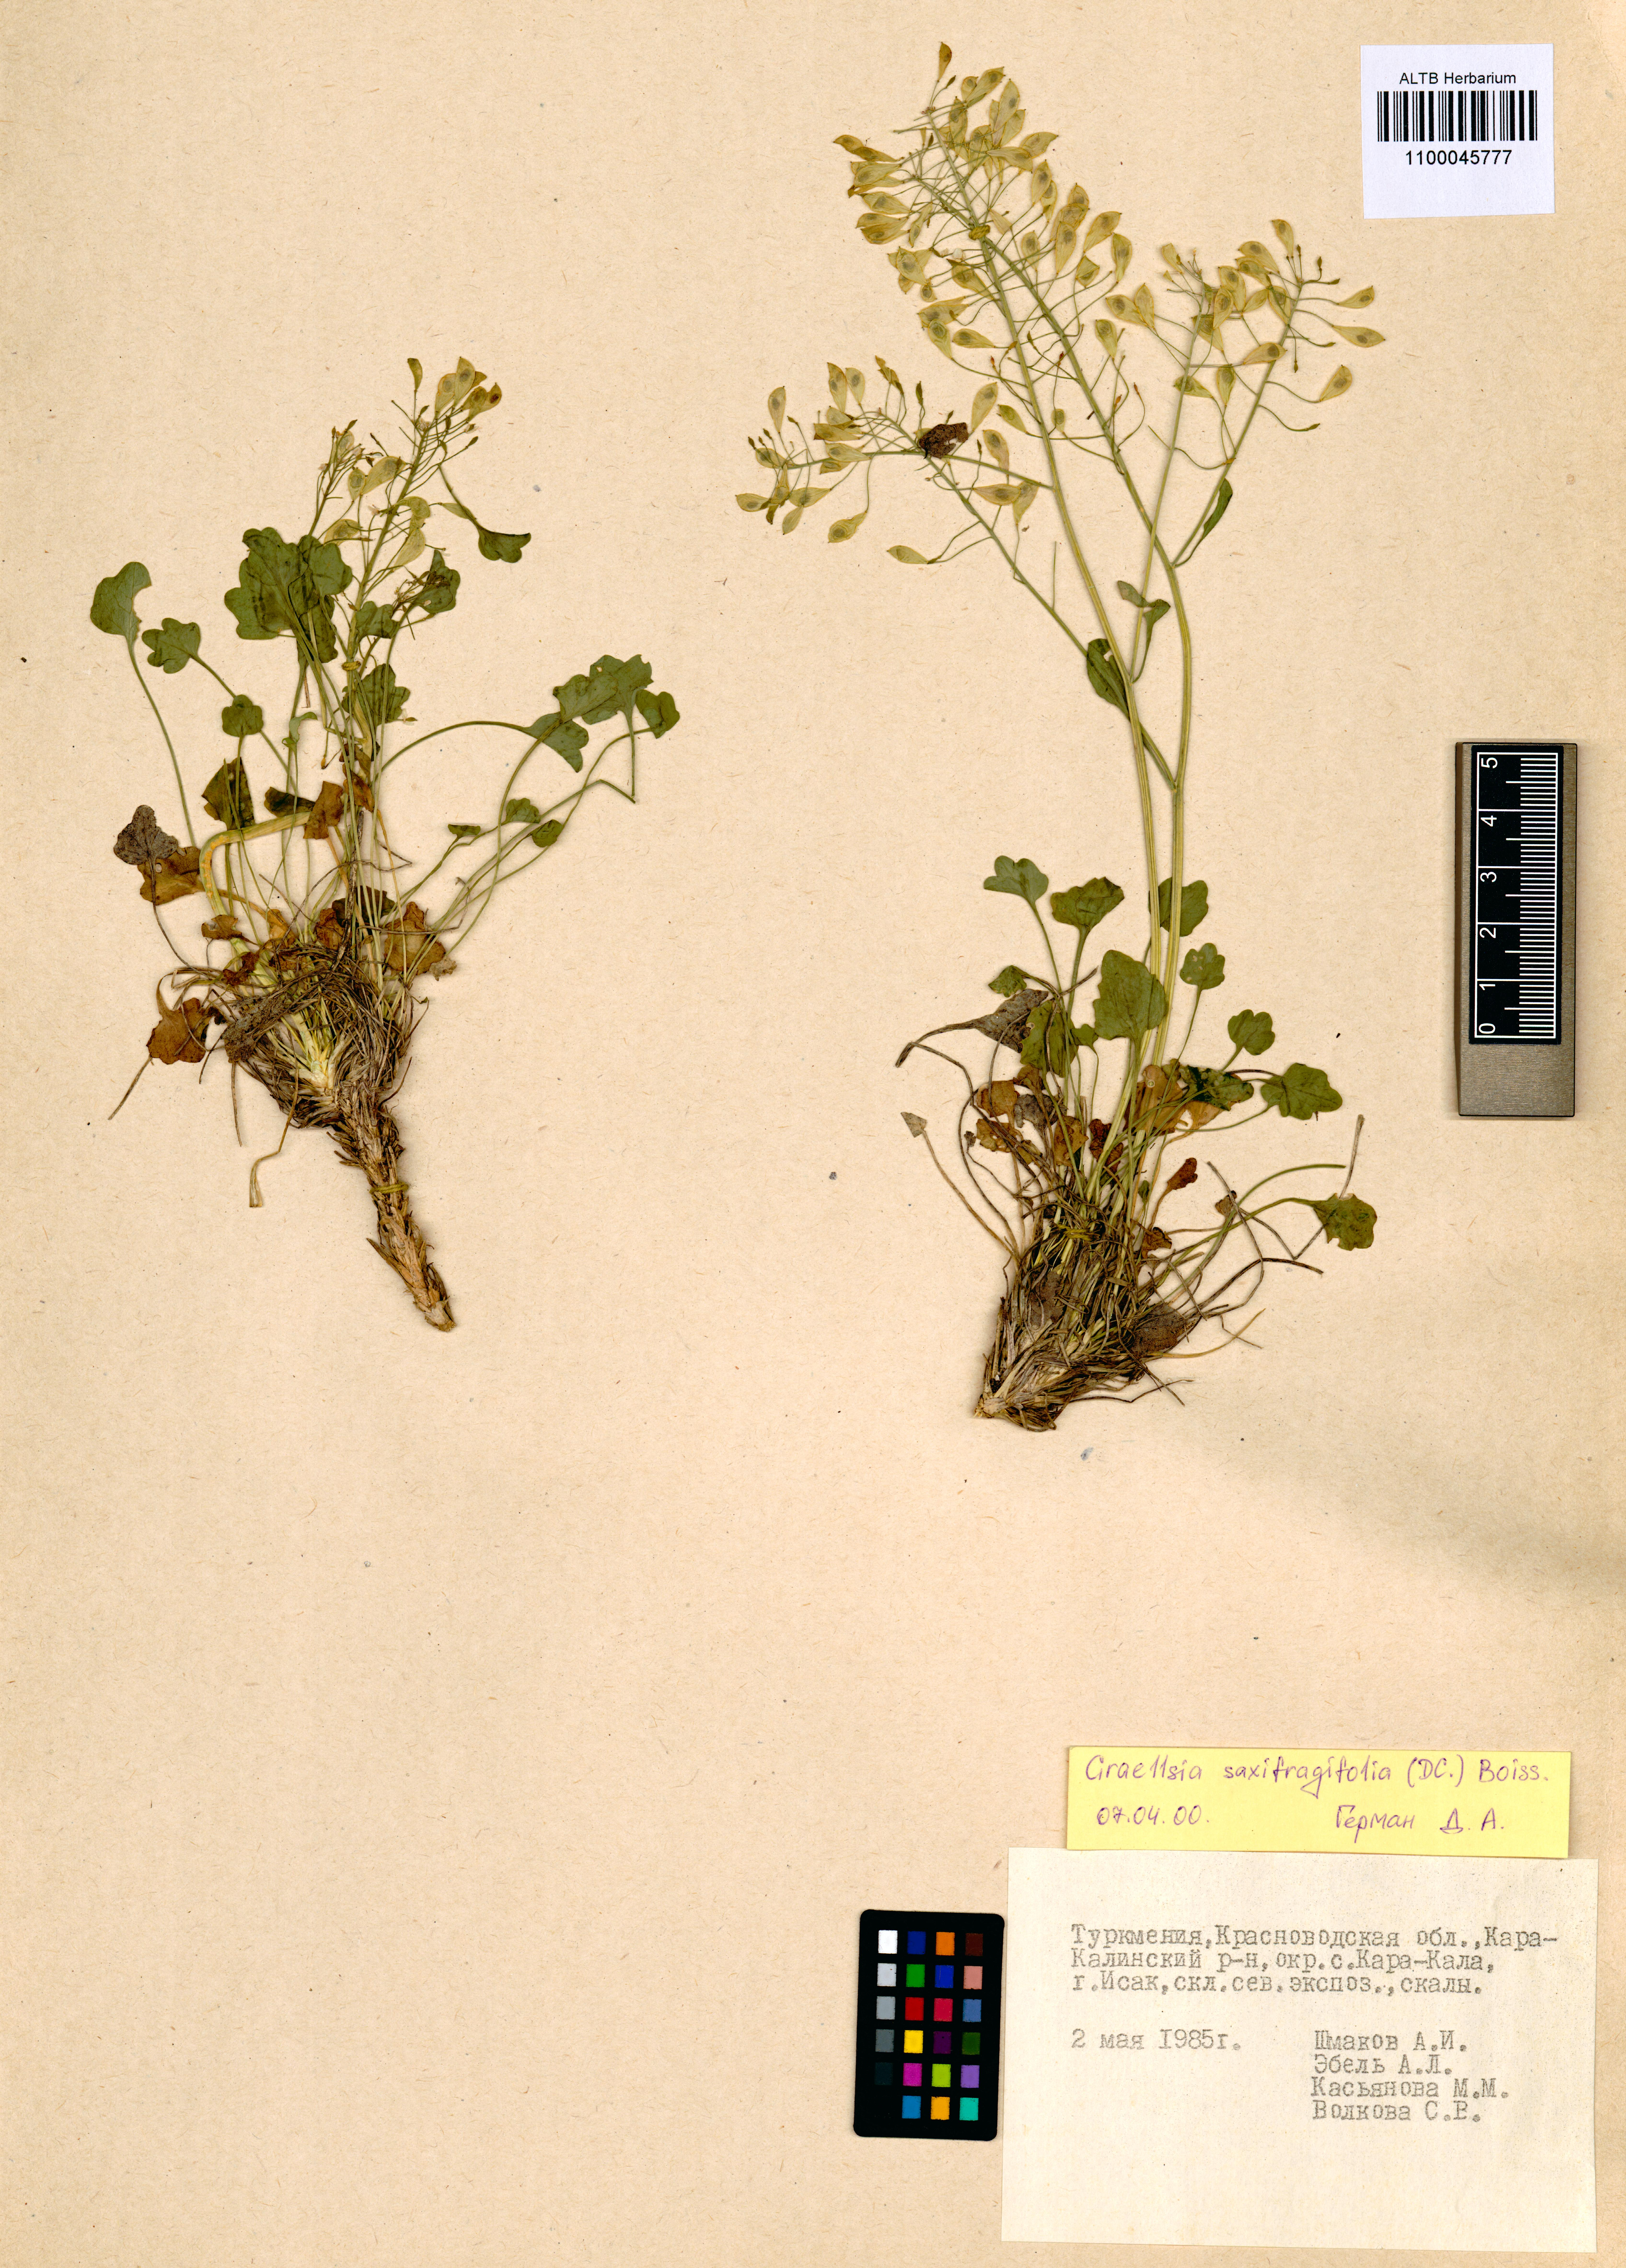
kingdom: Plantae
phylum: Tracheophyta
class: Magnoliopsida
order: Brassicales
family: Brassicaceae
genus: Graellsia
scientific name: Graellsia saxifragifolia
